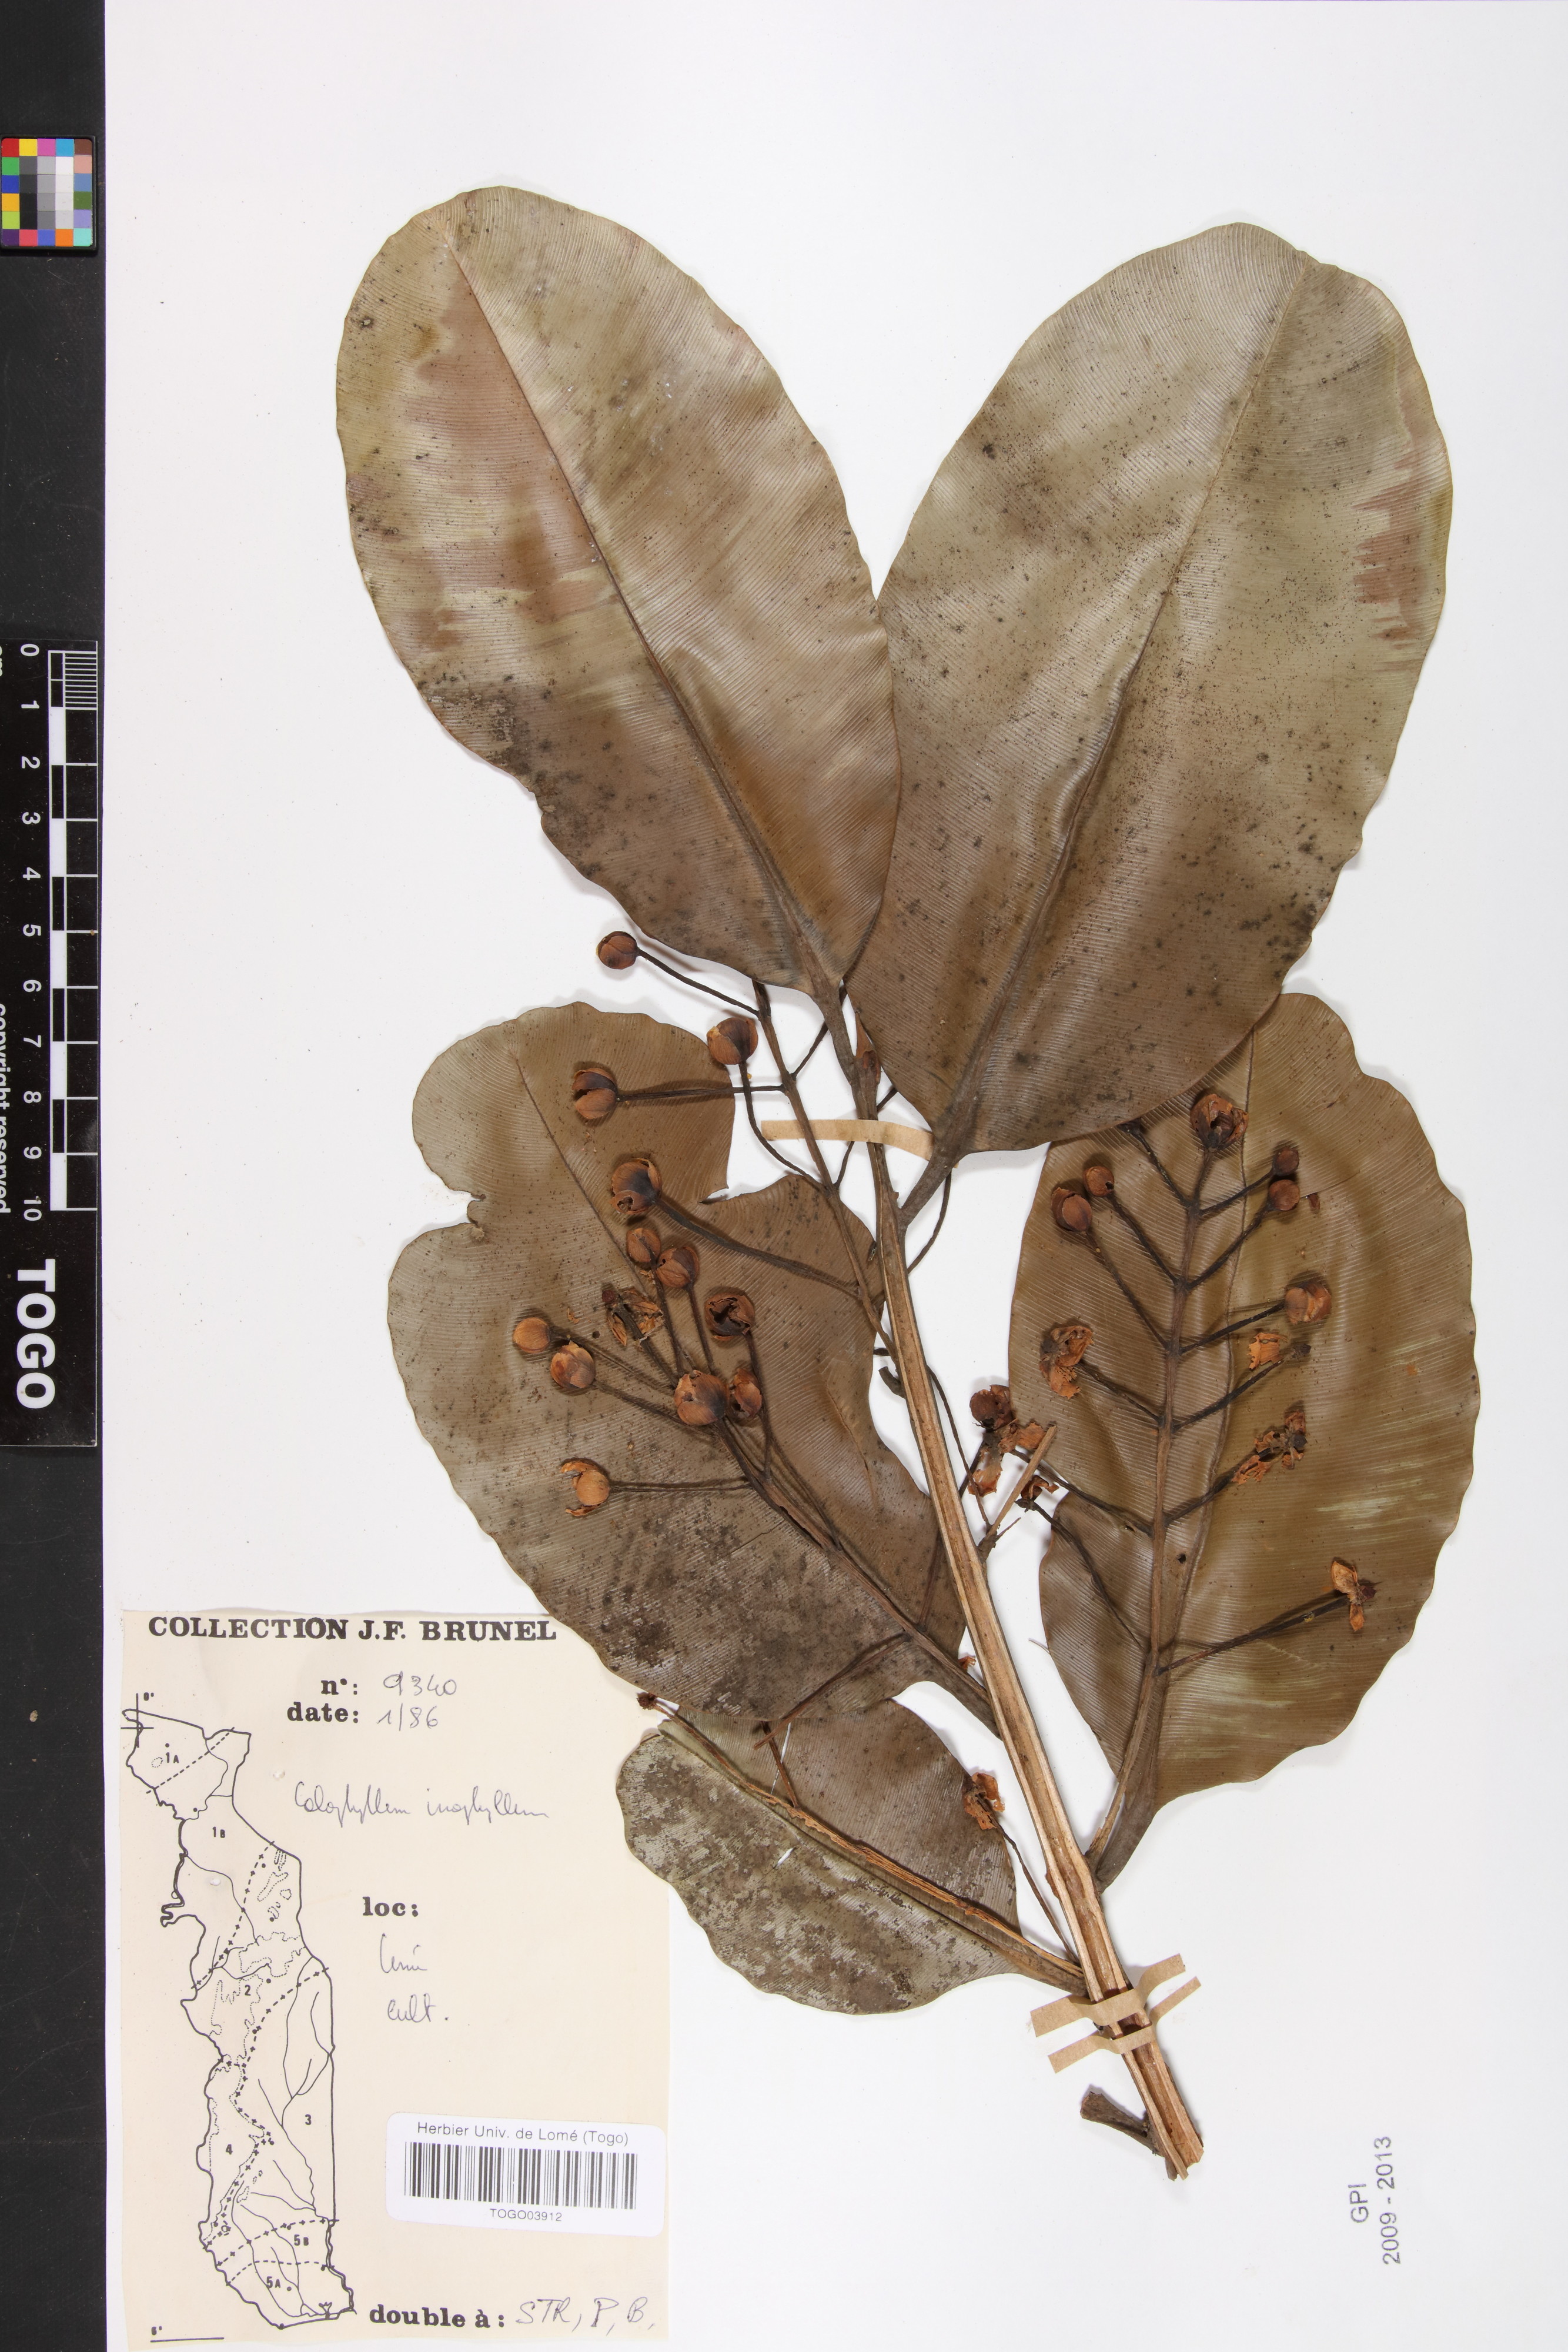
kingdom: Plantae
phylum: Tracheophyta
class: Magnoliopsida
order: Malpighiales
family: Calophyllaceae
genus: Calophyllum
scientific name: Calophyllum inophyllum
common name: Alexandrian laurel
